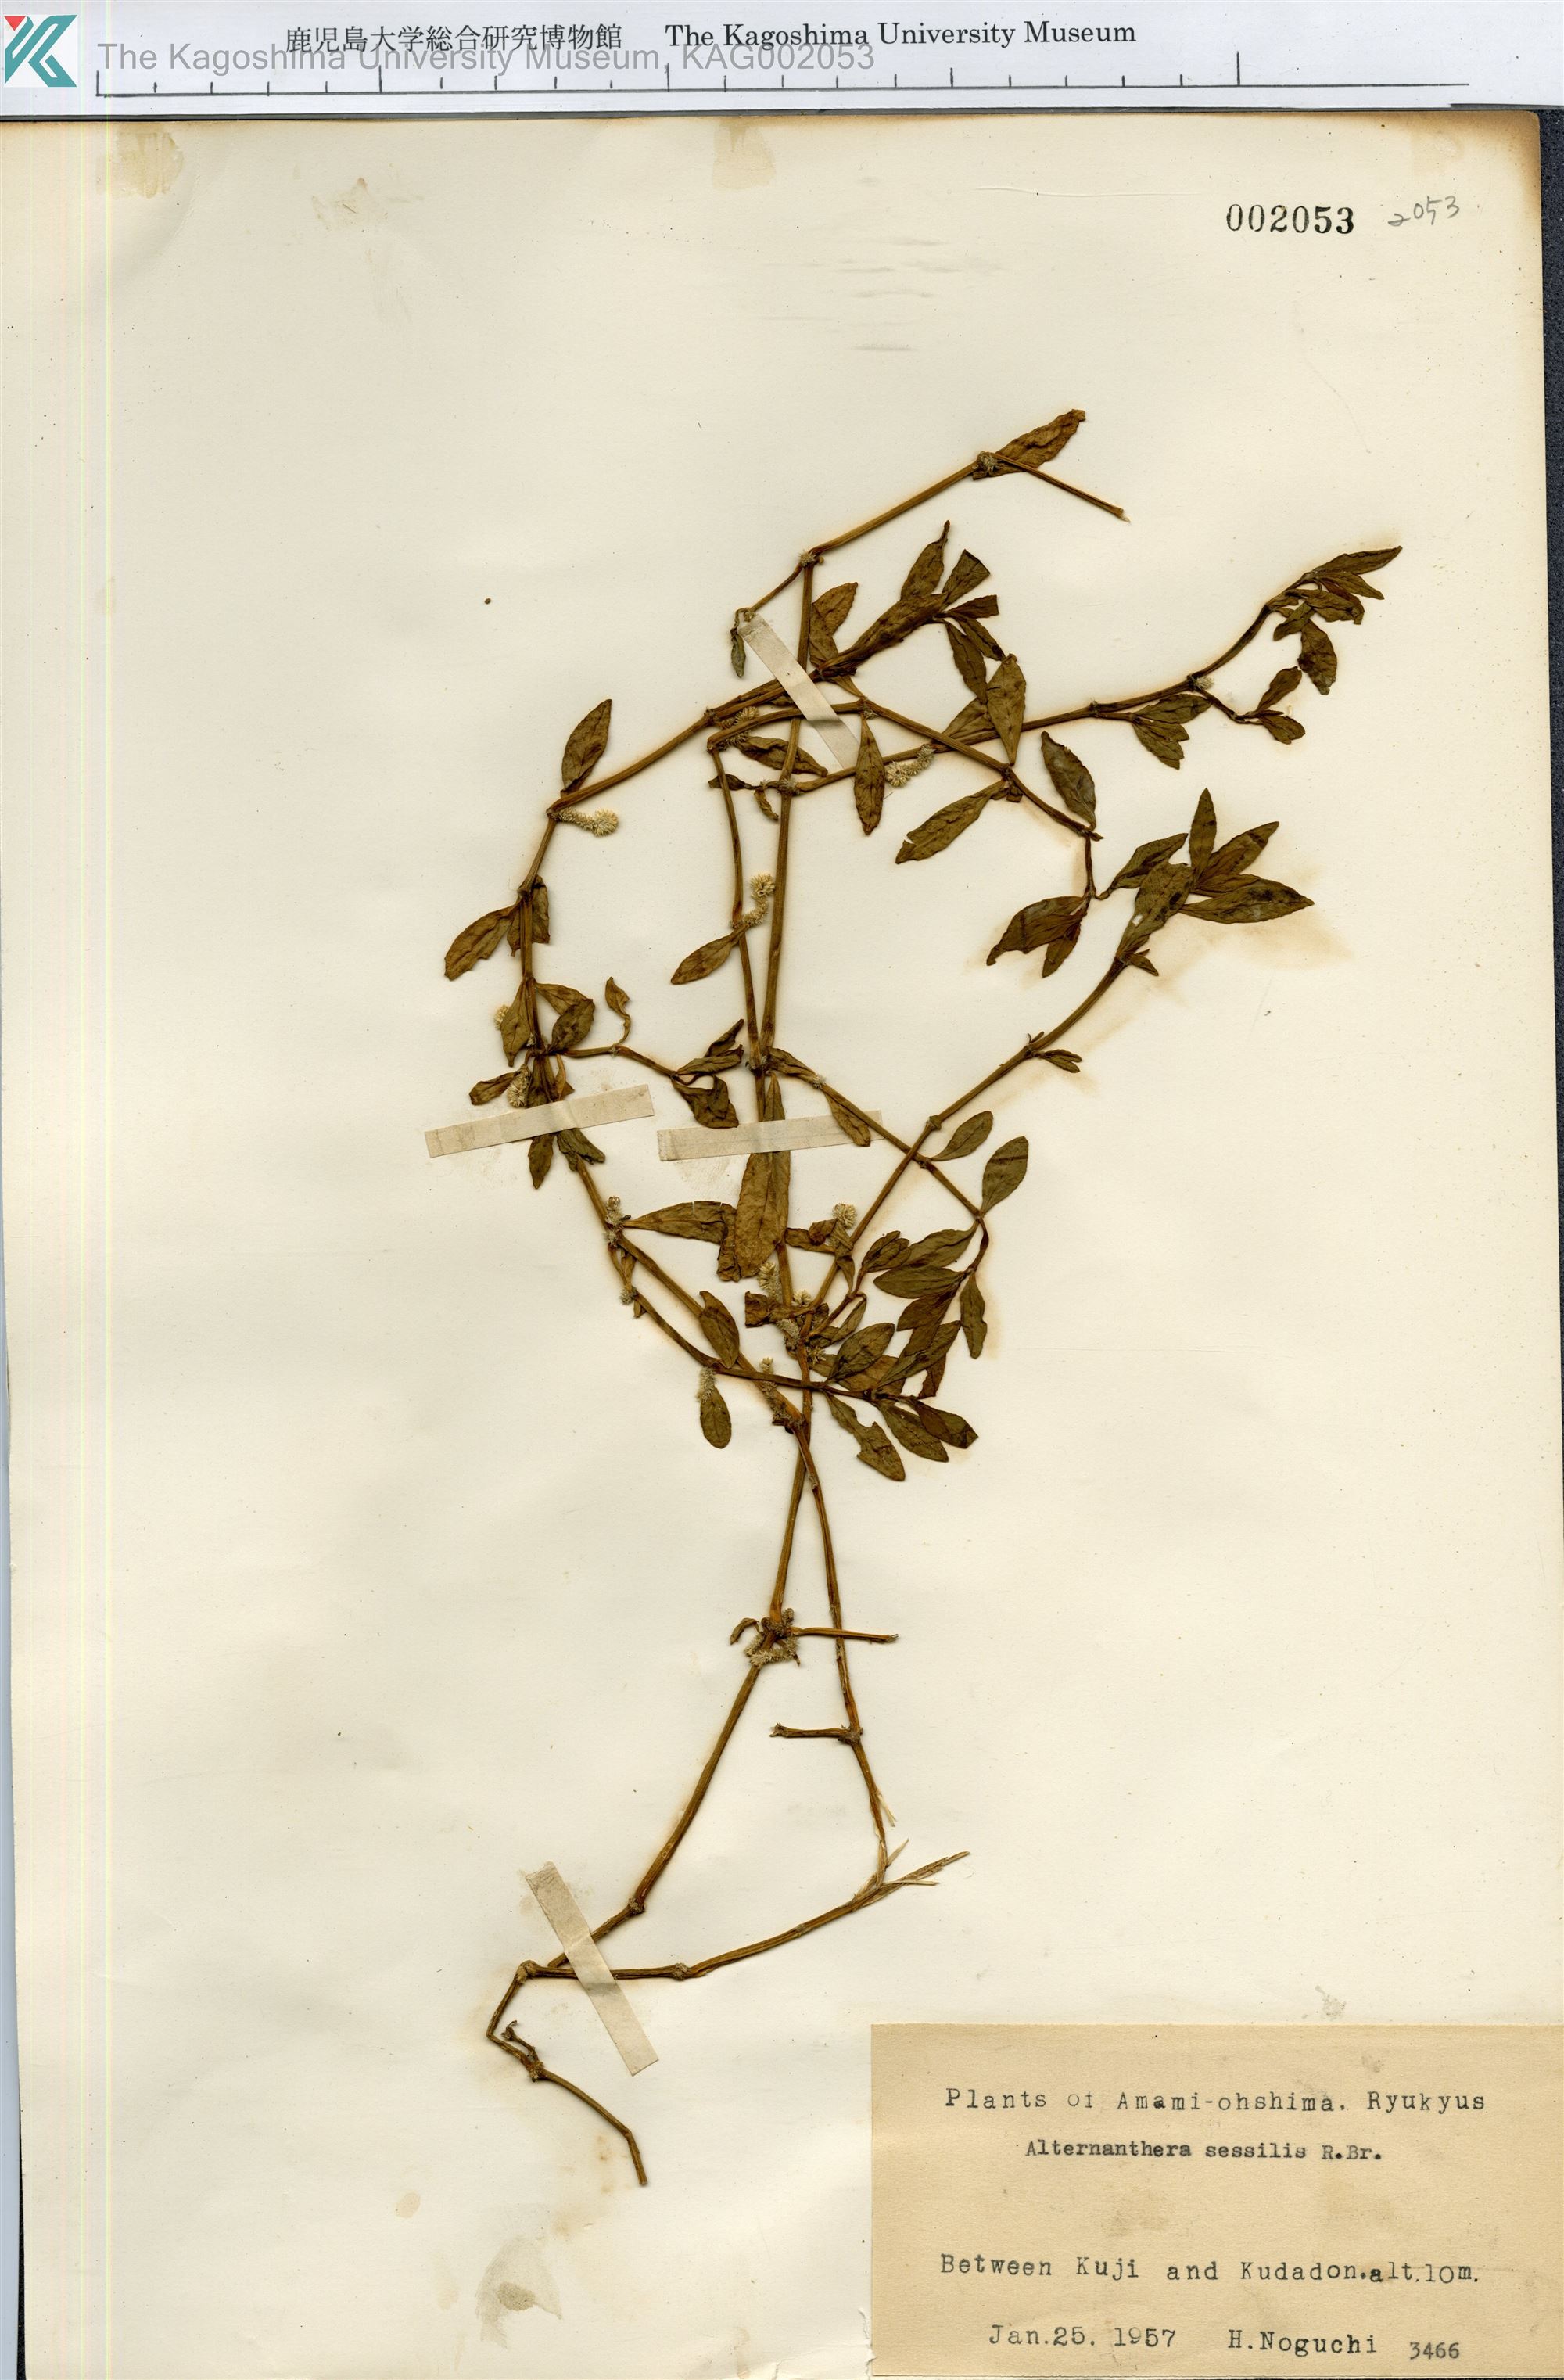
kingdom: Plantae
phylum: Tracheophyta
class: Magnoliopsida
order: Caryophyllales
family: Amaranthaceae
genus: Alternanthera
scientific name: Alternanthera sessilis
